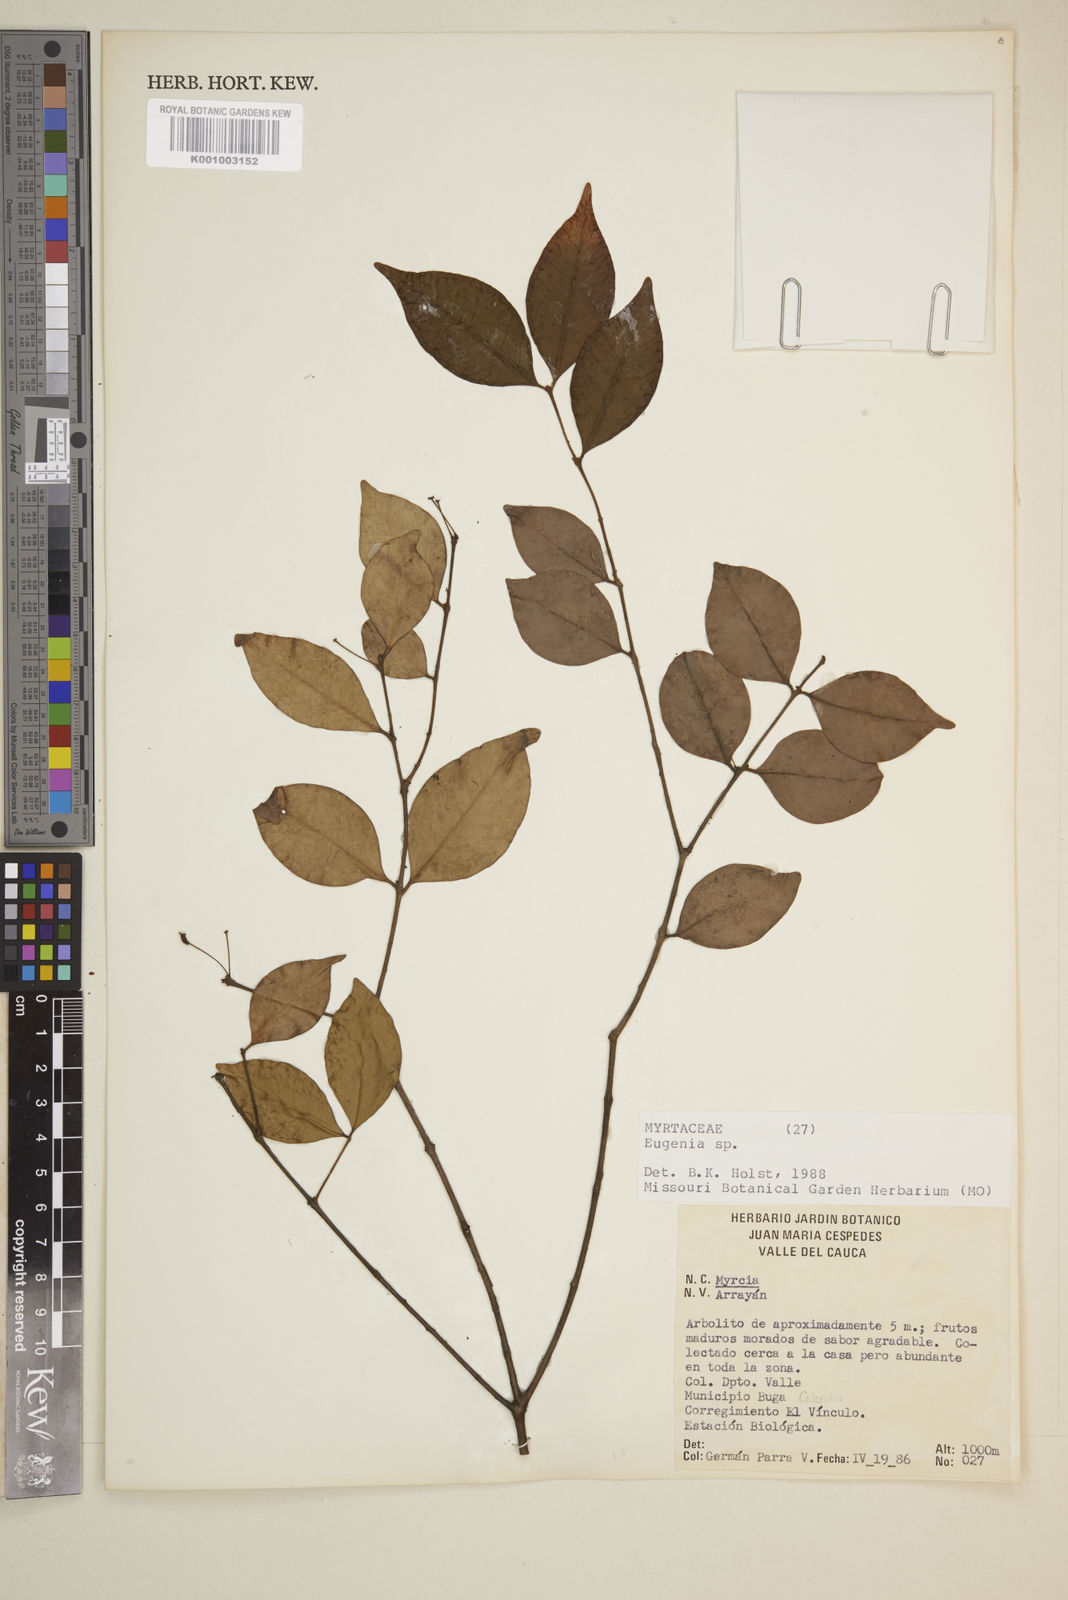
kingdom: Plantae
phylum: Tracheophyta
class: Magnoliopsida
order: Myrtales
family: Myrtaceae
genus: Eugenia
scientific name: Eugenia
